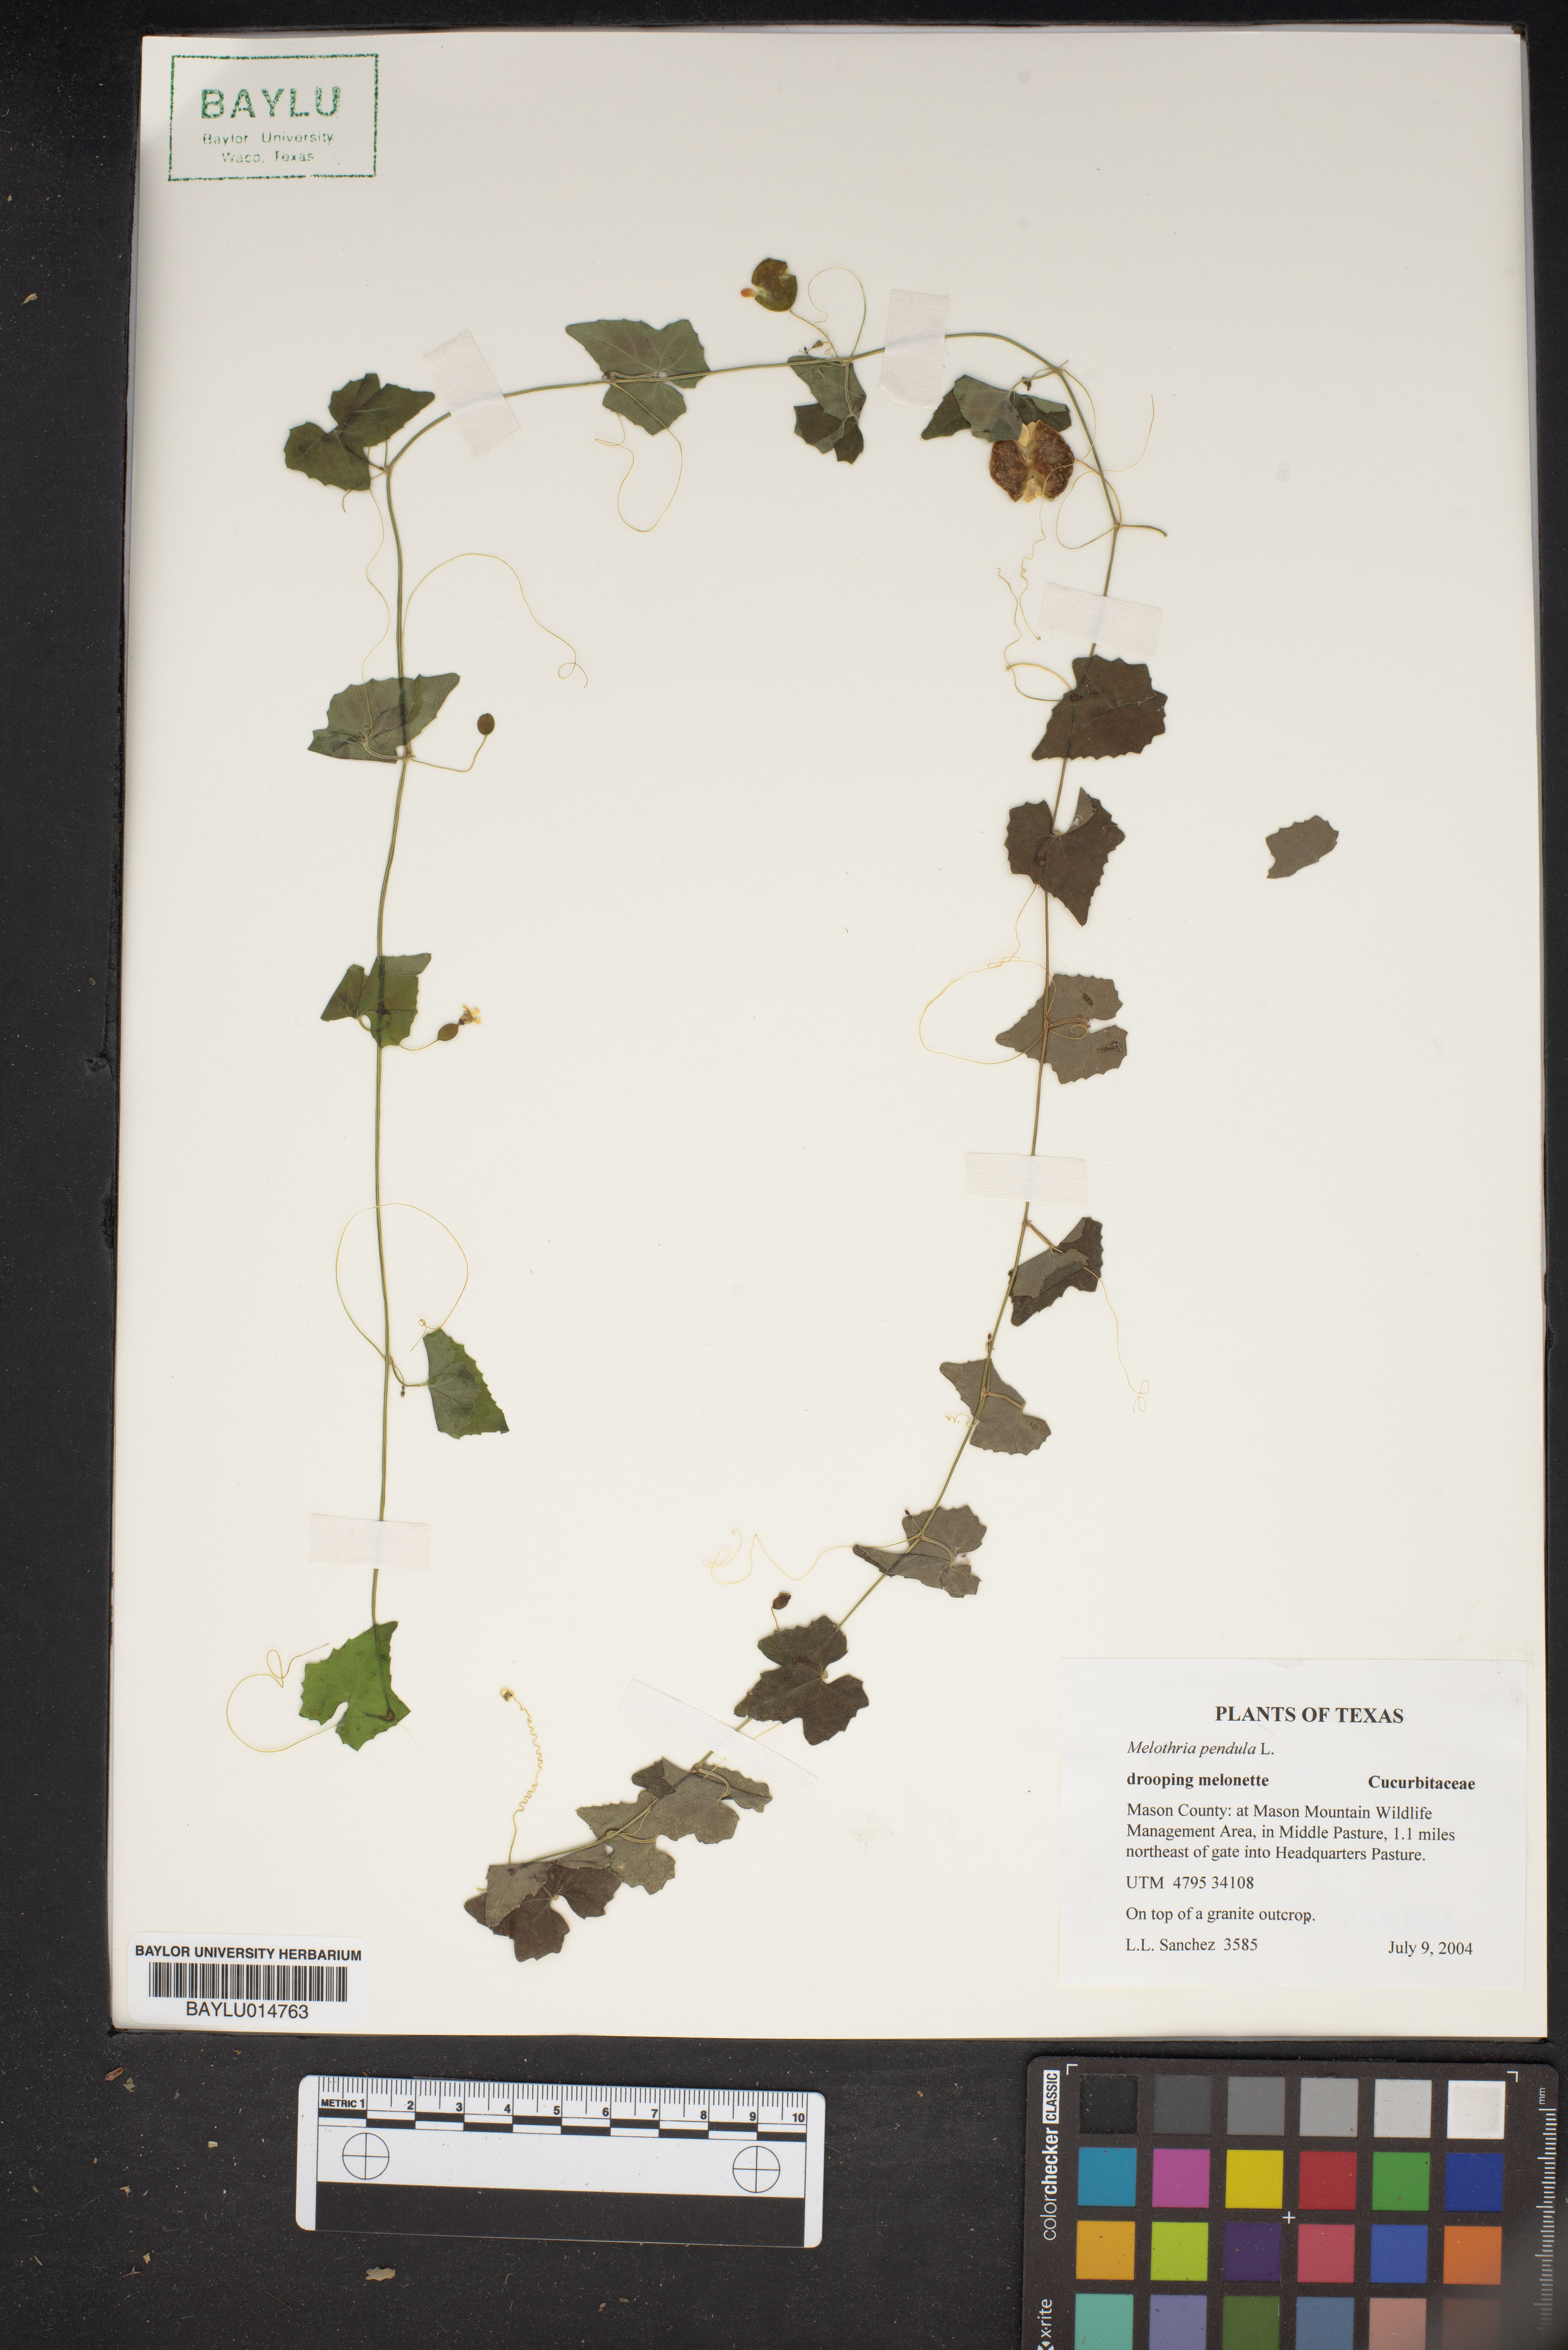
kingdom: Plantae
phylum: Tracheophyta
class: Magnoliopsida
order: Cucurbitales
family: Cucurbitaceae
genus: Melothria
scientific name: Melothria pendula
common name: Creeping-cucumber
